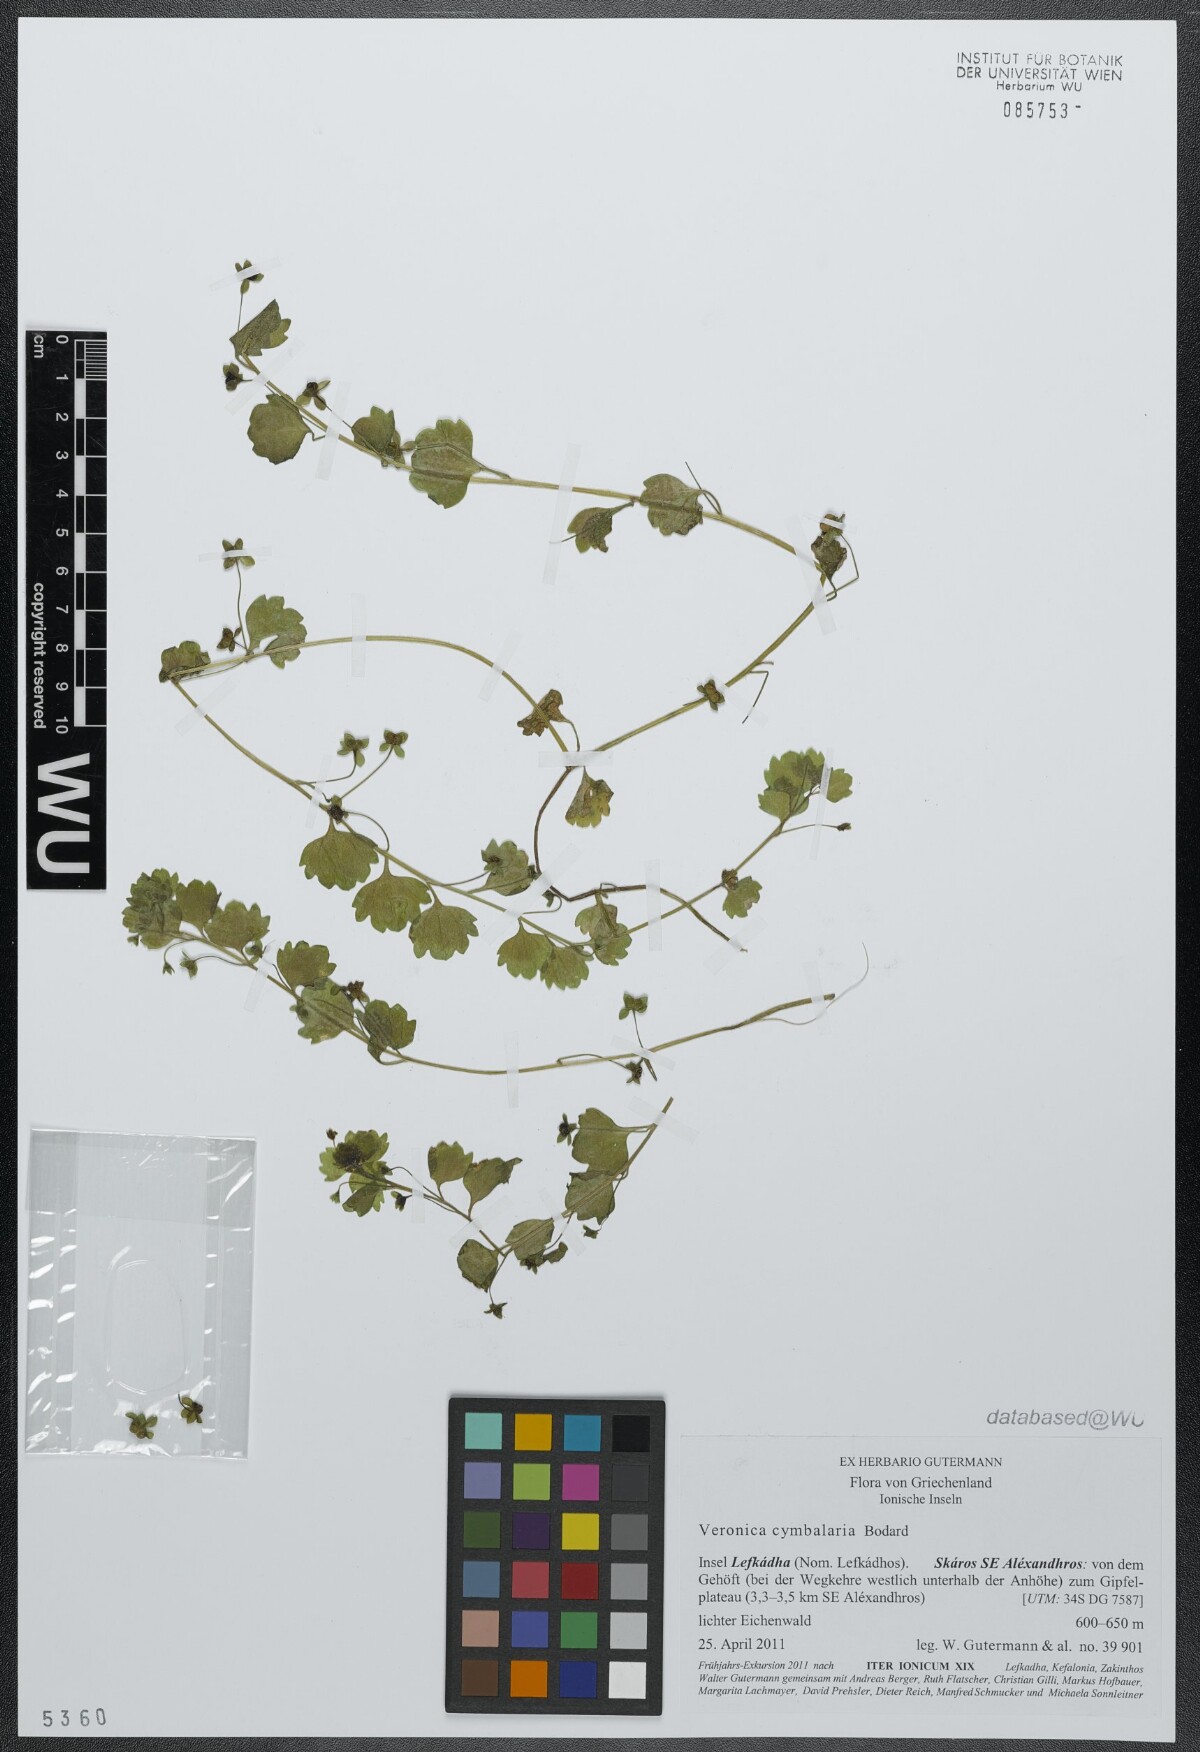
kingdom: Plantae
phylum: Tracheophyta
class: Magnoliopsida
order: Lamiales
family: Plantaginaceae
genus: Veronica
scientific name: Veronica cymbalaria
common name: Pale speedwell
